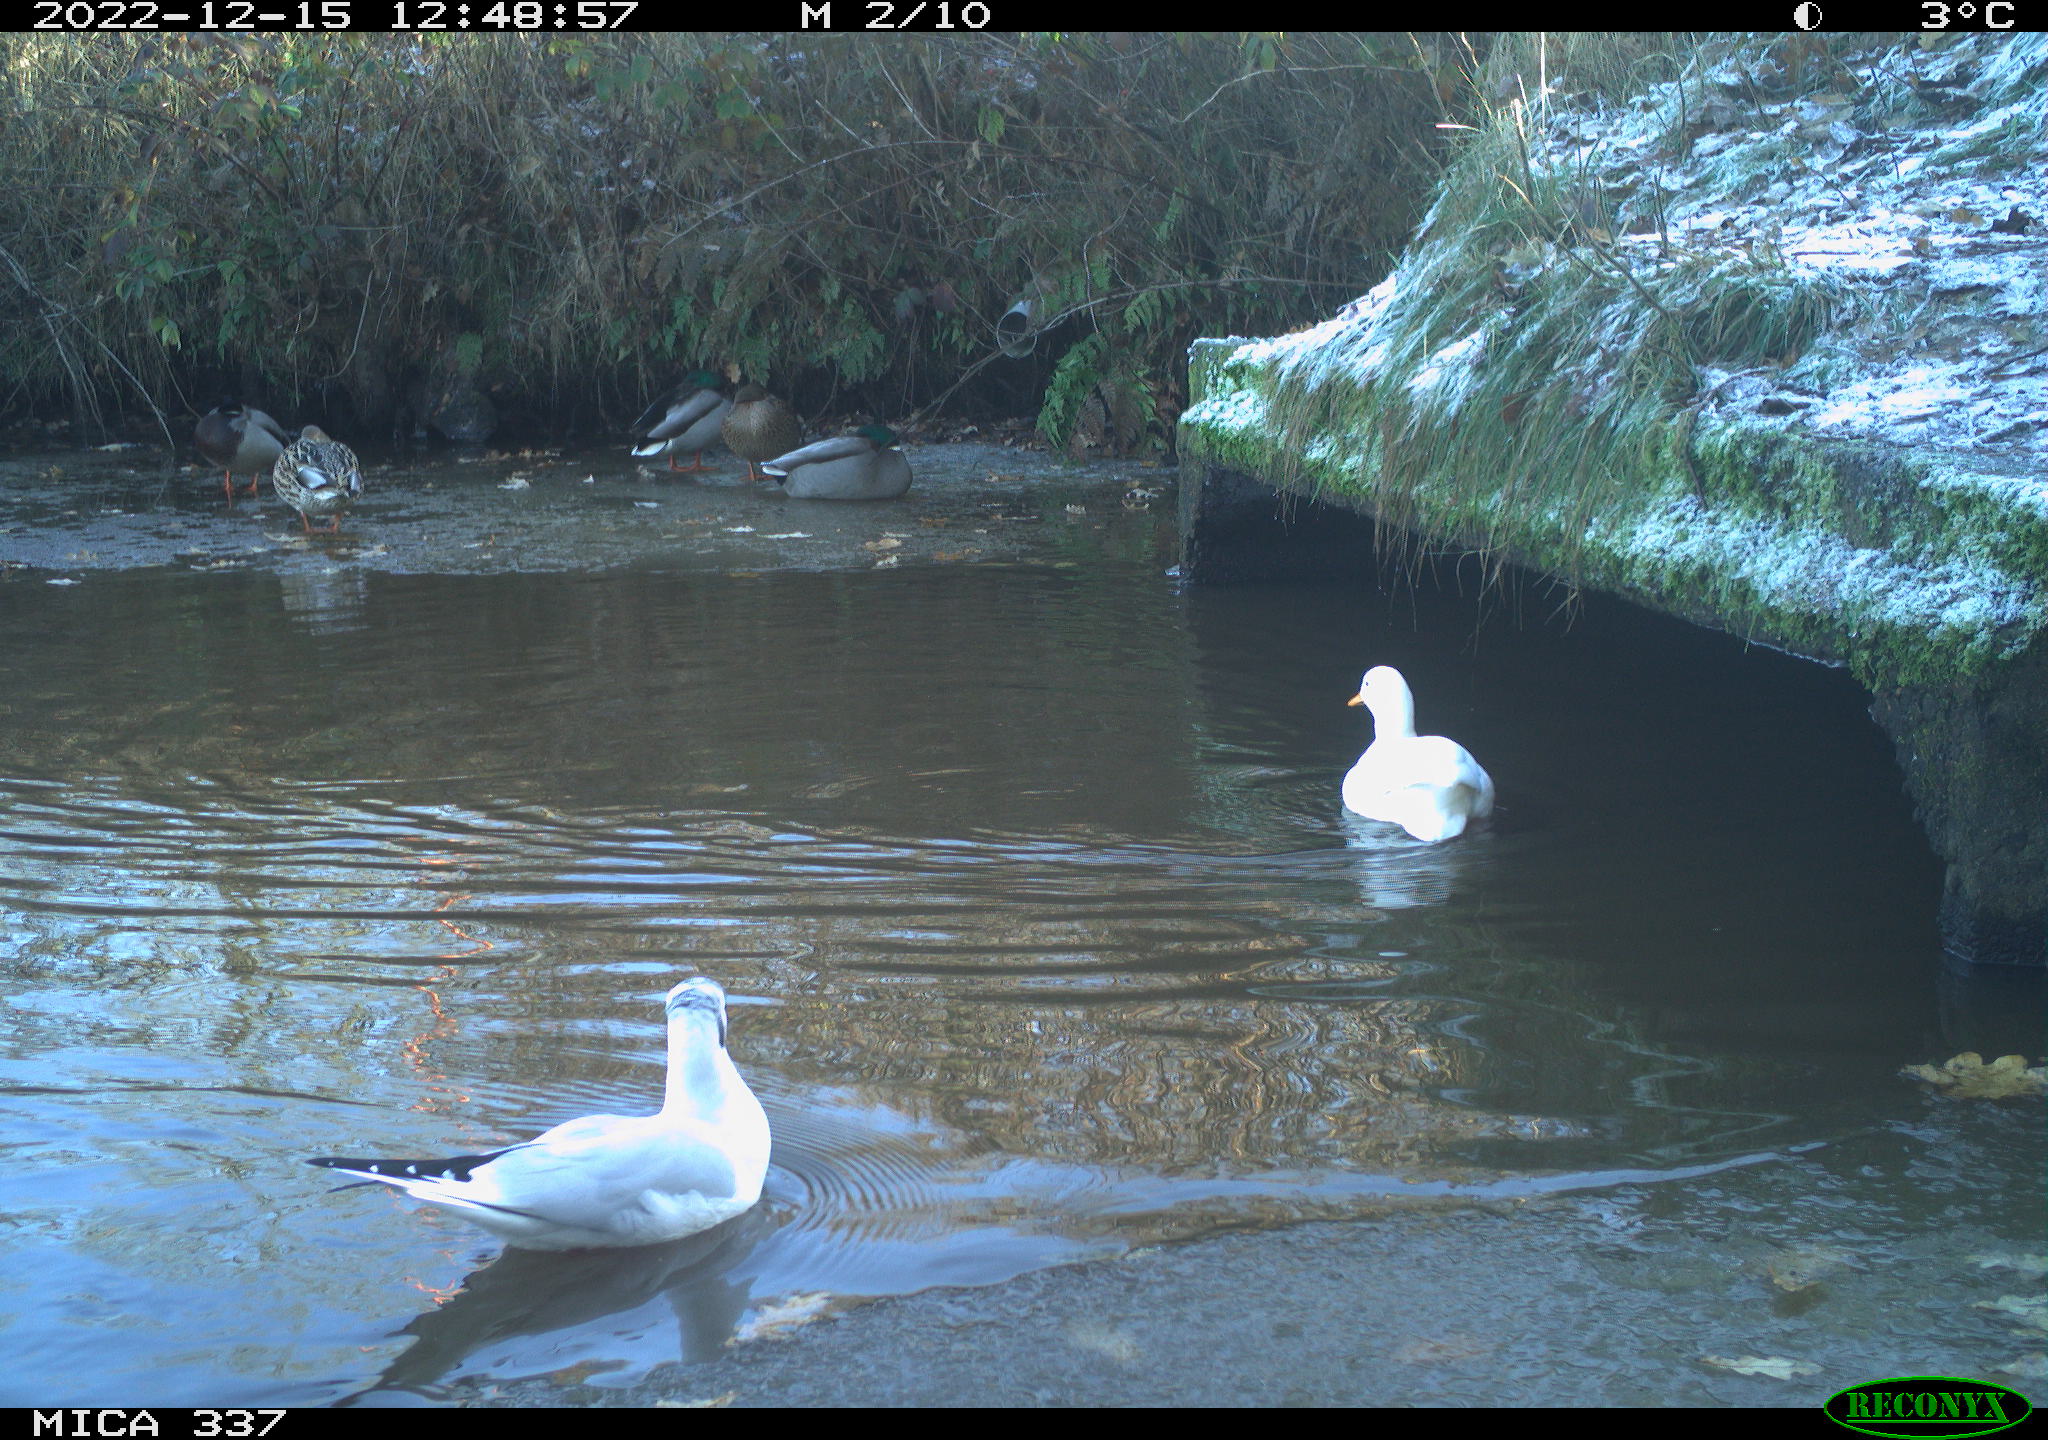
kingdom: Animalia
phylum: Chordata
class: Aves
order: Anseriformes
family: Anatidae
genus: Anas
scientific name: Anas
